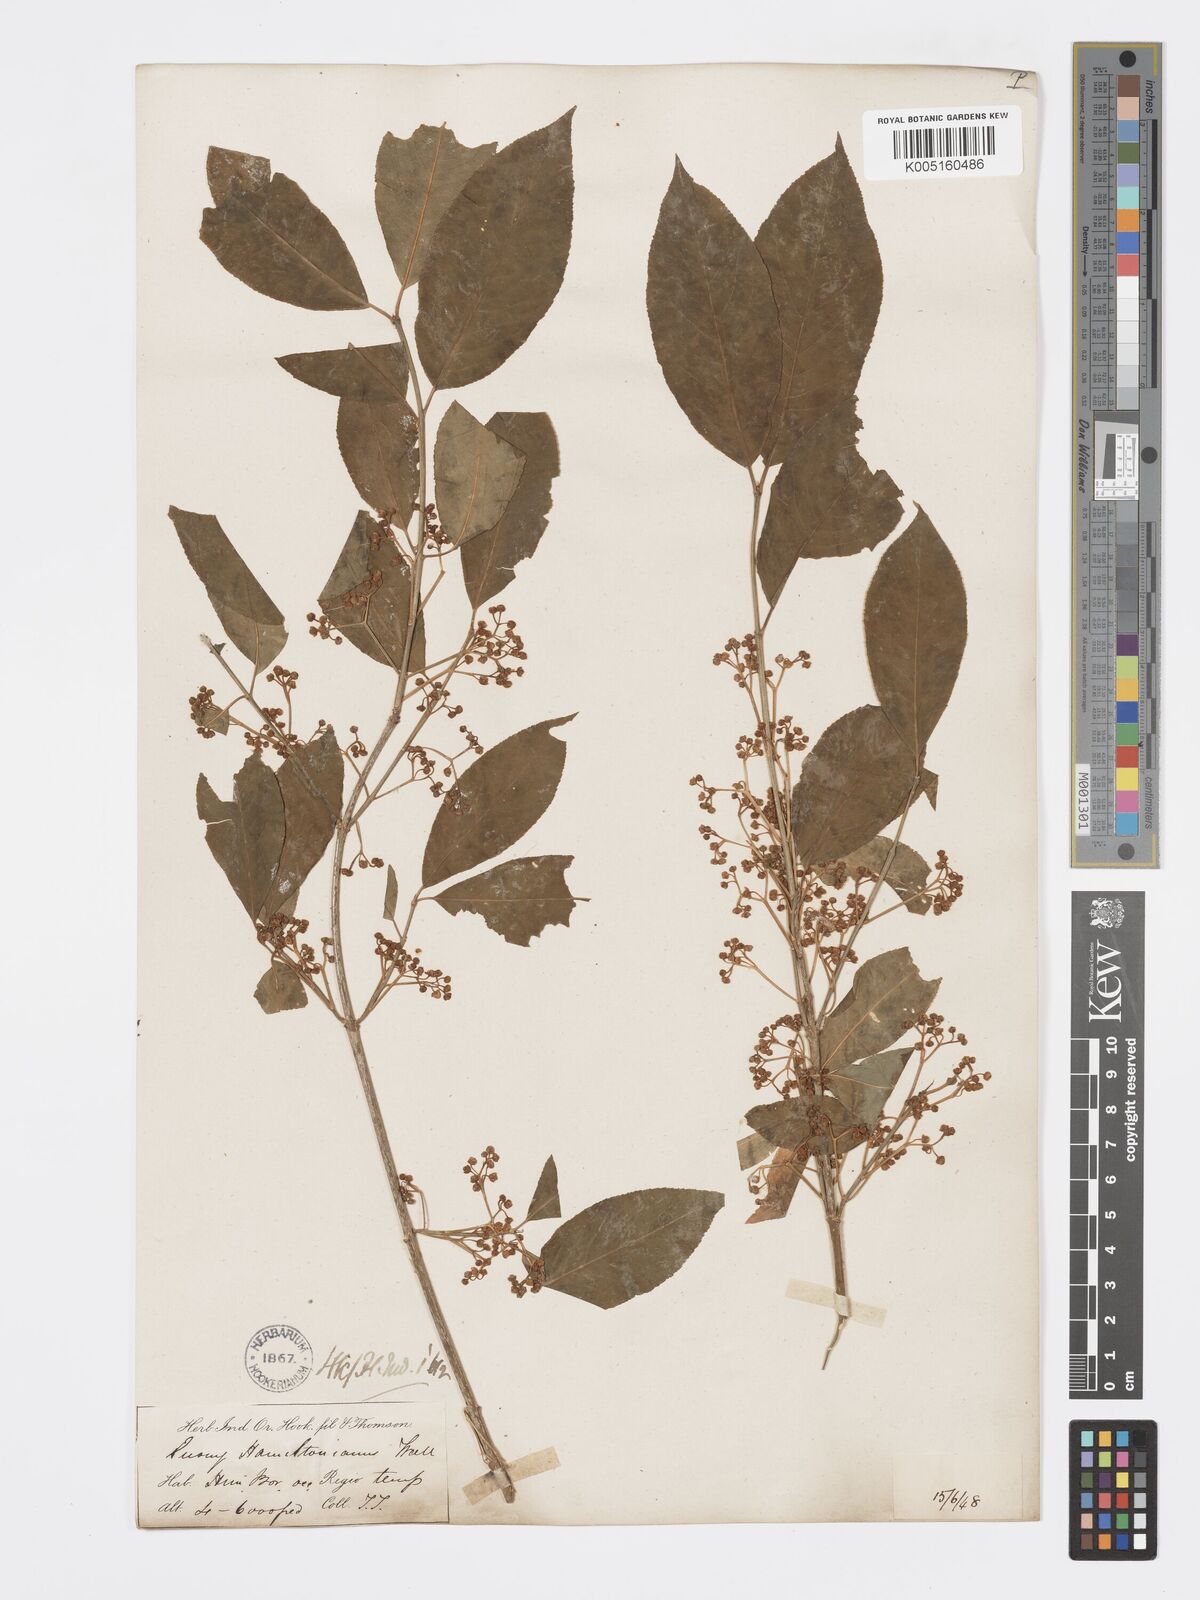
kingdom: Plantae
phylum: Tracheophyta
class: Magnoliopsida
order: Celastrales
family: Celastraceae
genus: Euonymus
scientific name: Euonymus
